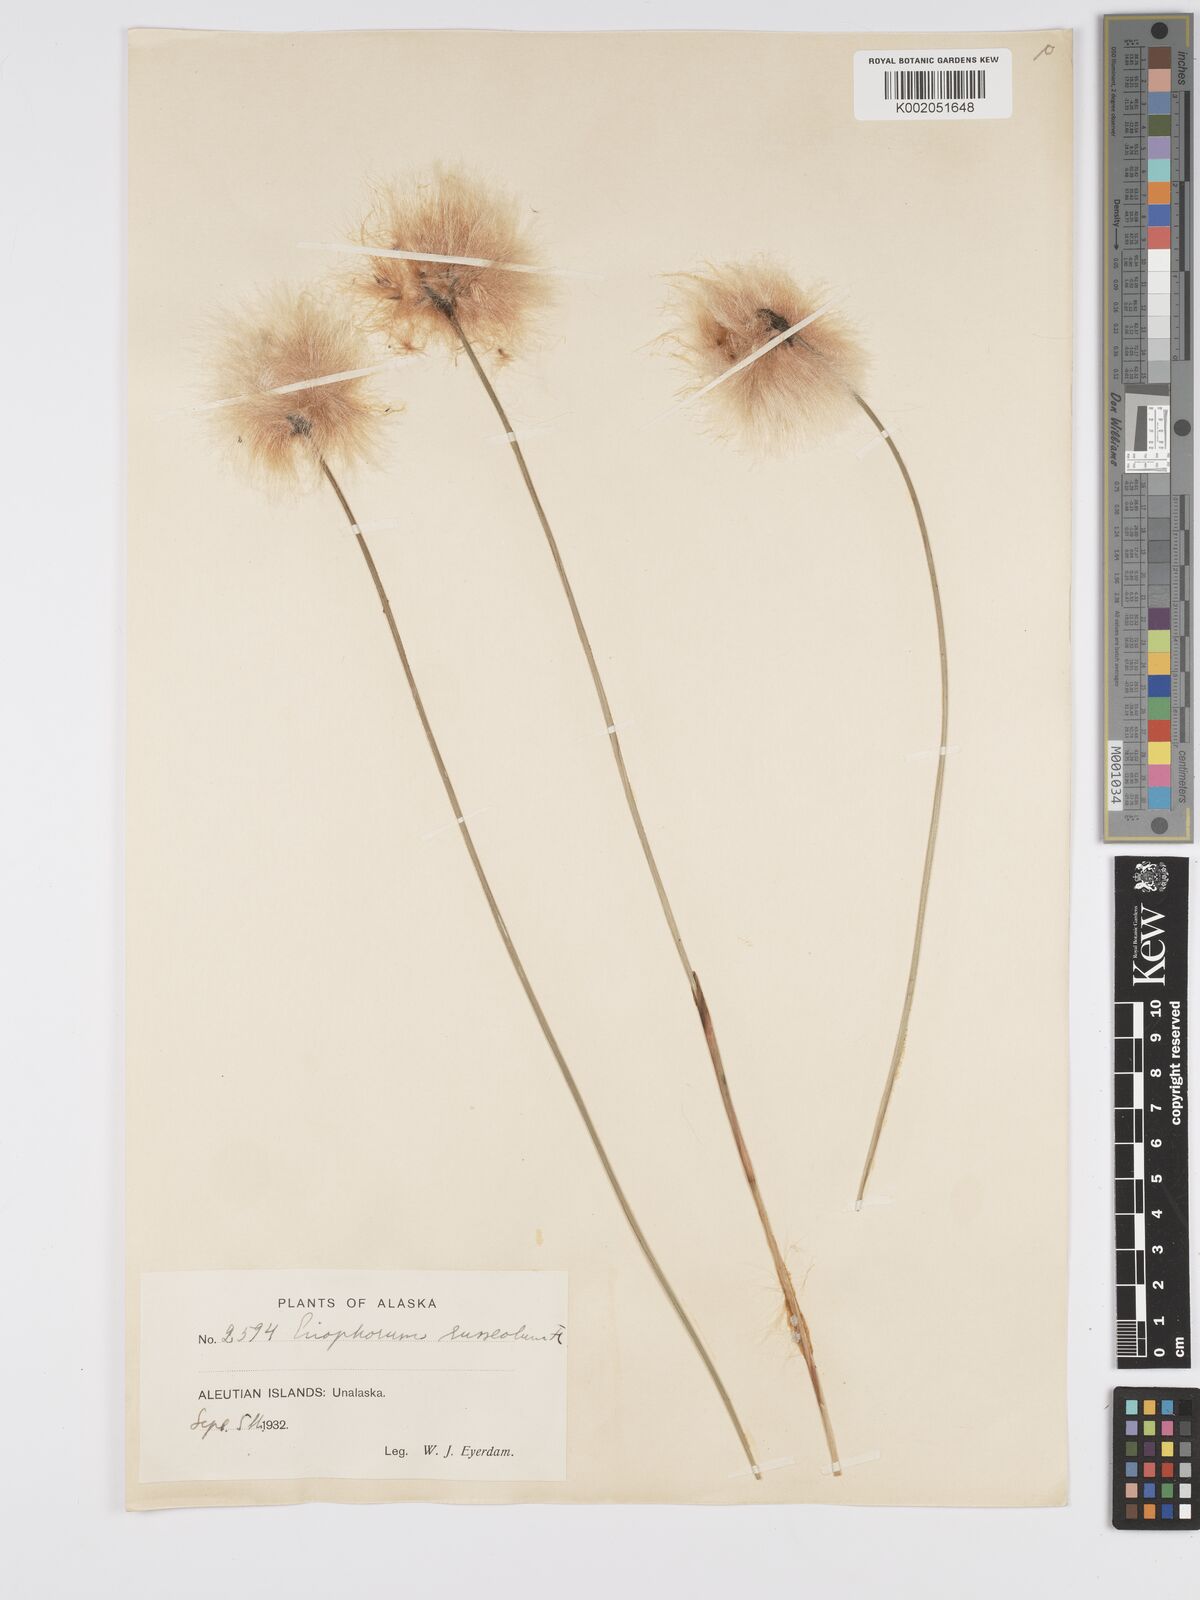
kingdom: Plantae
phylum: Tracheophyta
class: Liliopsida
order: Poales
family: Cyperaceae
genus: Eriophorum
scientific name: Eriophorum chamissonis
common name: Chamisso's cottongrass
